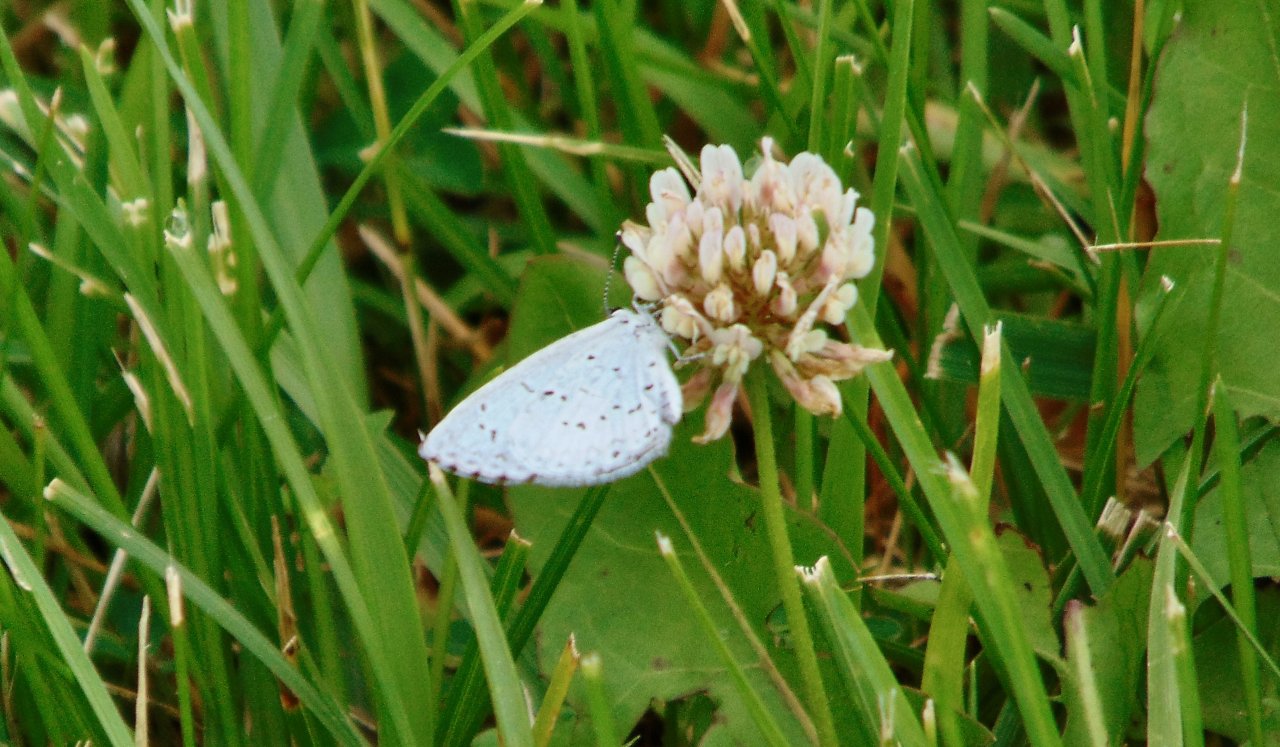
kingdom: Animalia
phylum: Arthropoda
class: Insecta
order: Lepidoptera
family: Lycaenidae
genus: Cyaniris
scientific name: Cyaniris neglecta
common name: Summer Azure
